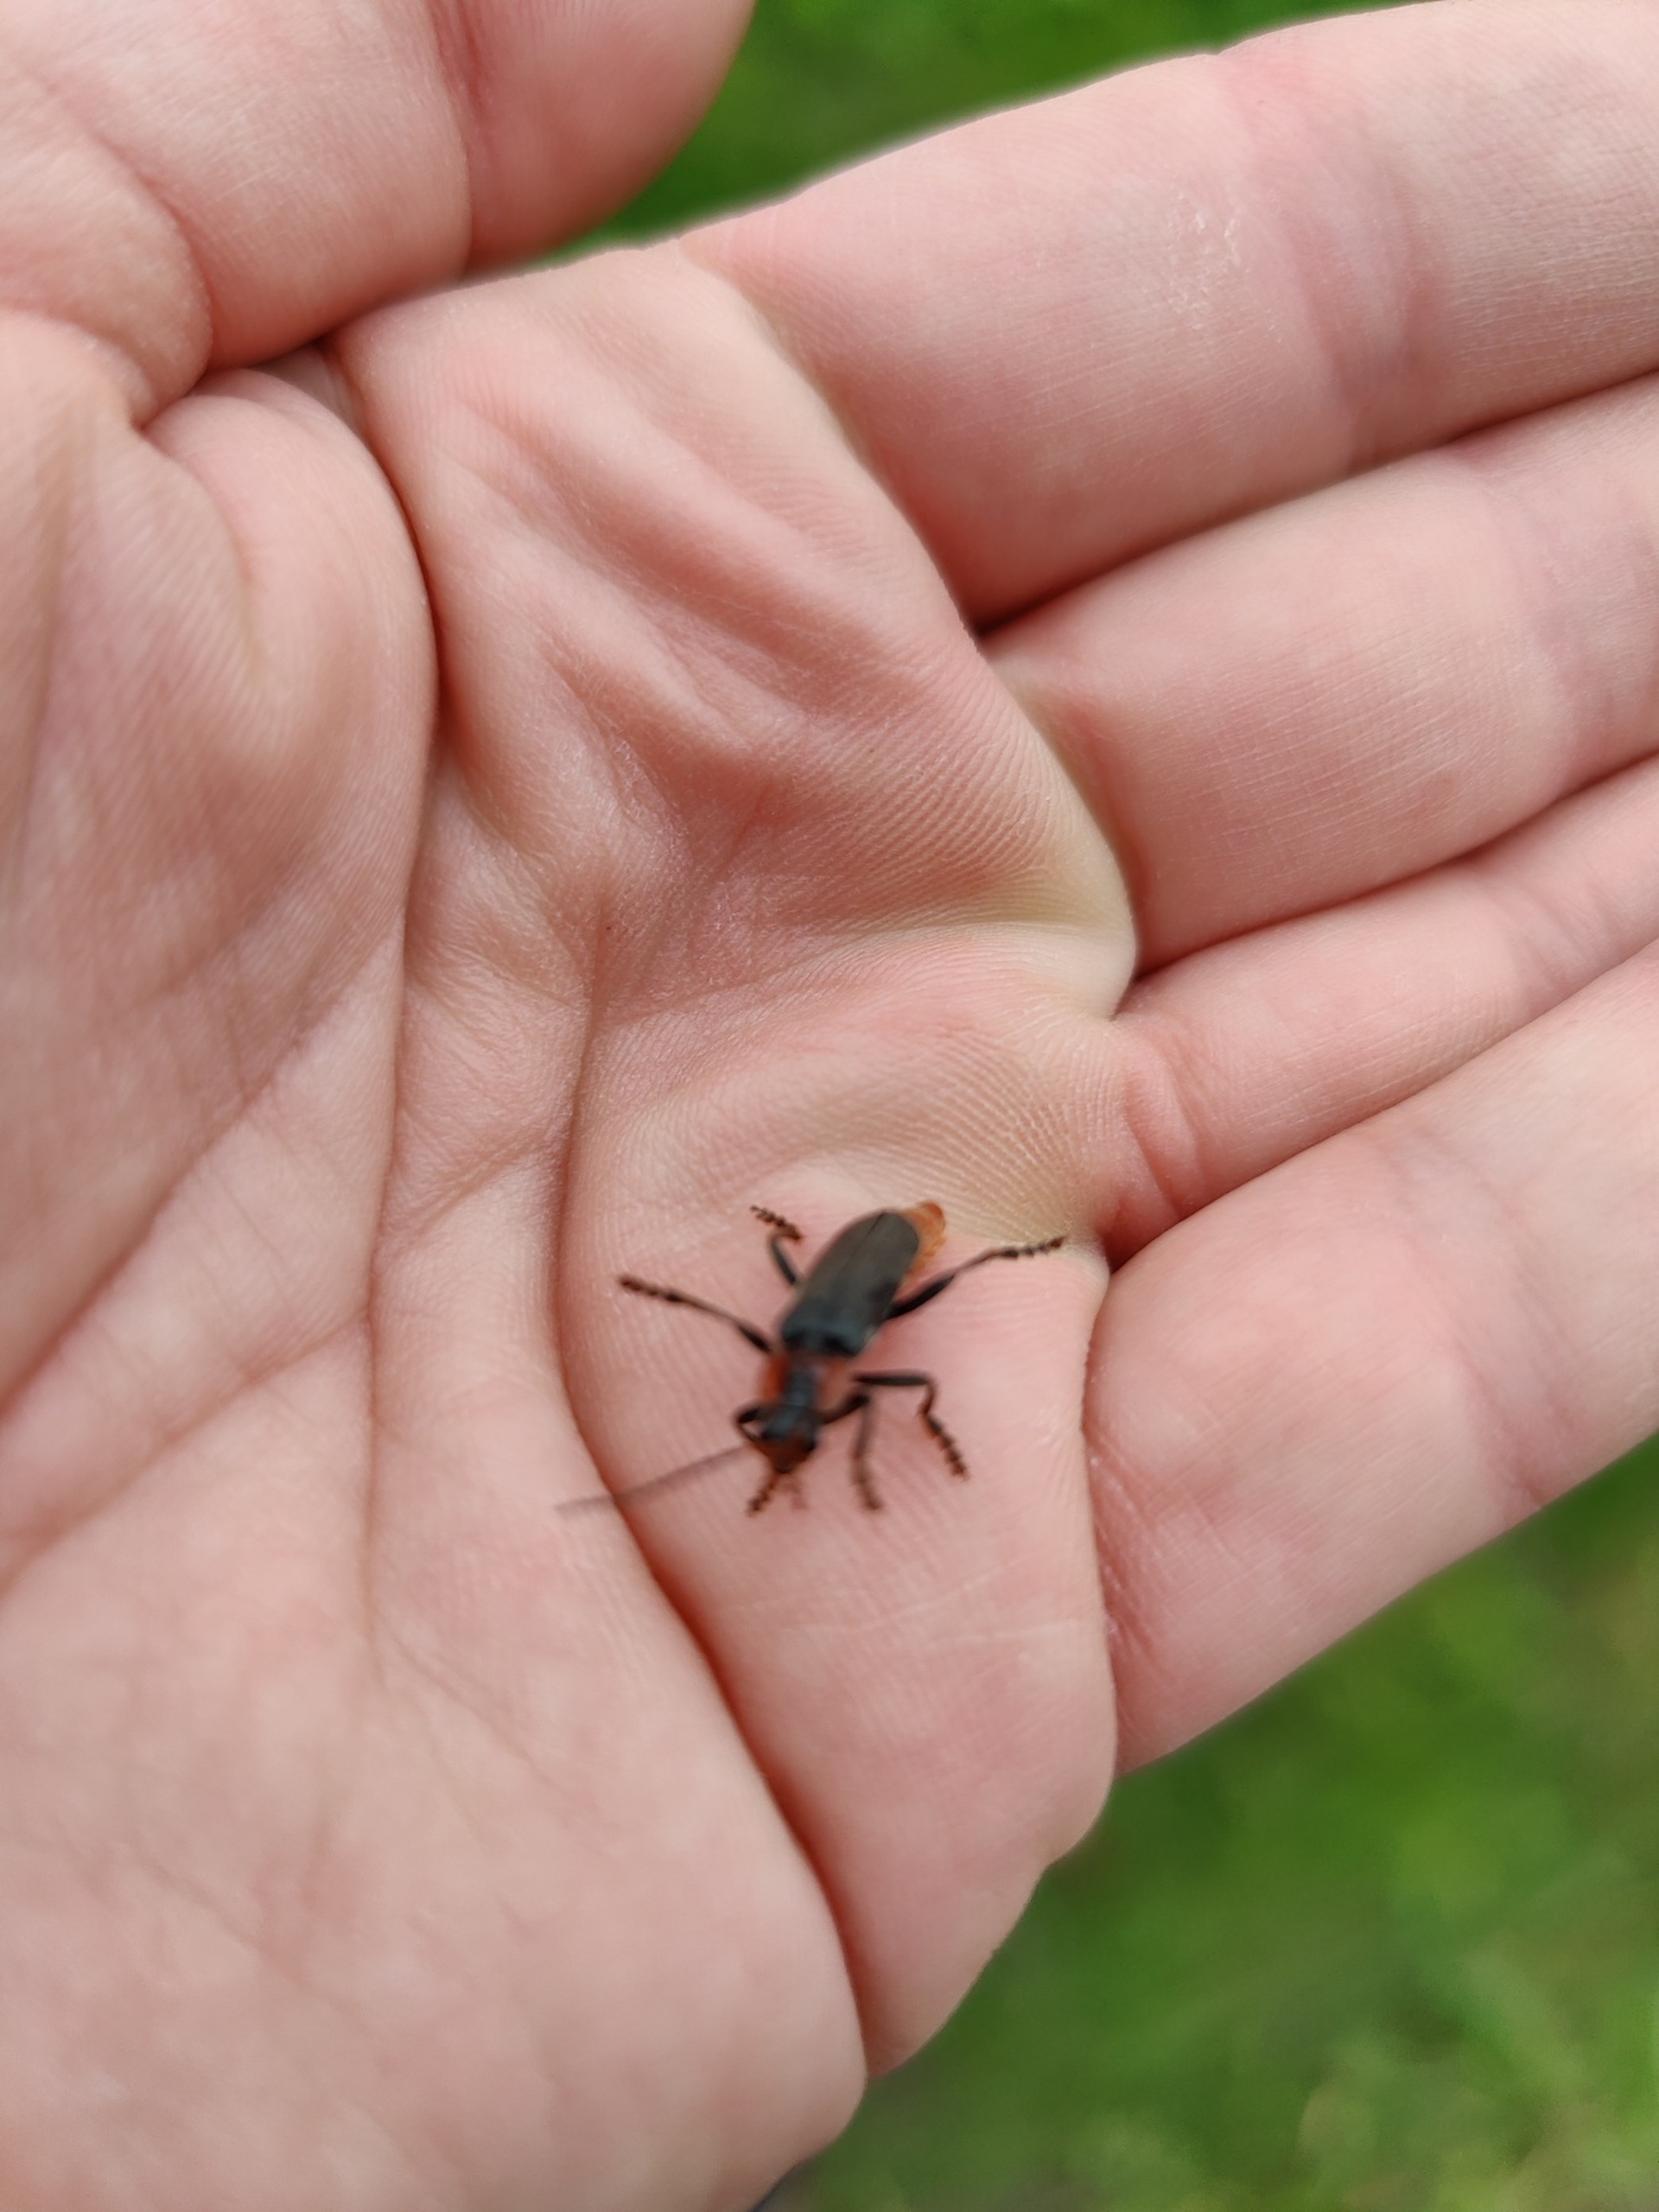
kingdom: Animalia
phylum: Arthropoda
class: Insecta
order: Coleoptera
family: Cantharidae
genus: Cantharis
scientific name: Cantharis fusca
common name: Stor blødvinge
